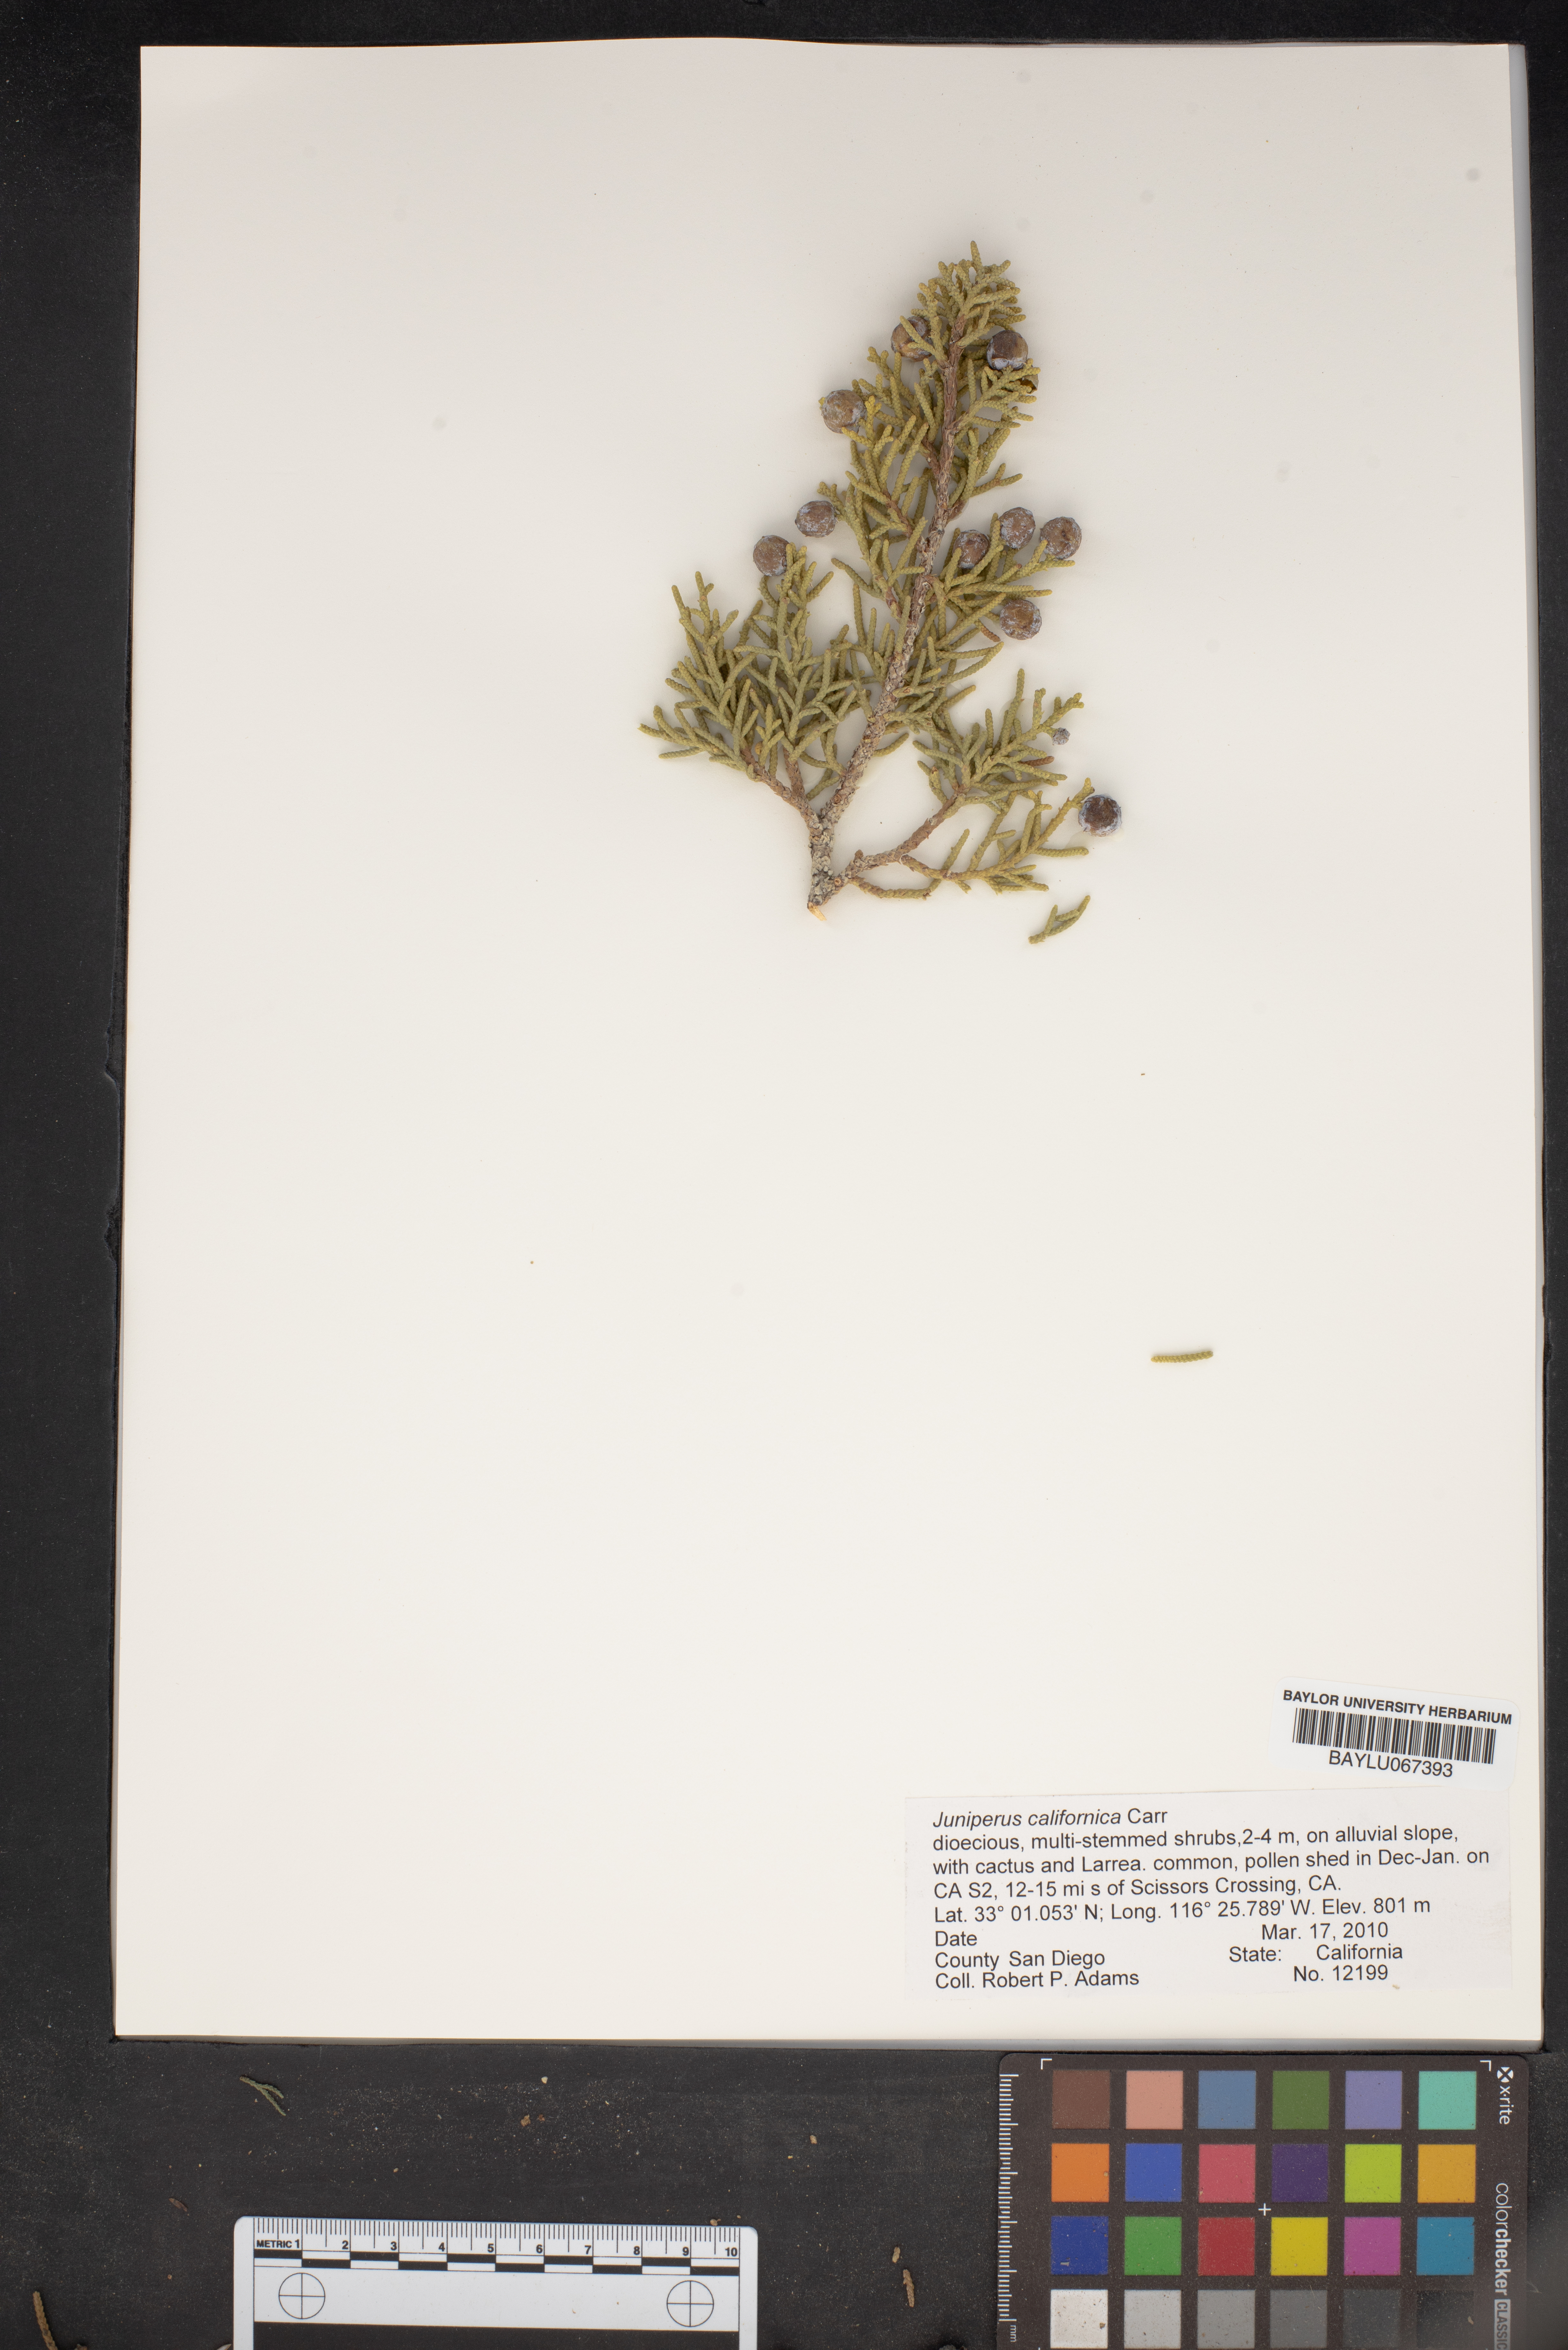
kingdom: Plantae
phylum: Tracheophyta
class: Pinopsida
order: Pinales
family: Cupressaceae
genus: Juniperus
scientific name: Juniperus californica
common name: California juniper
